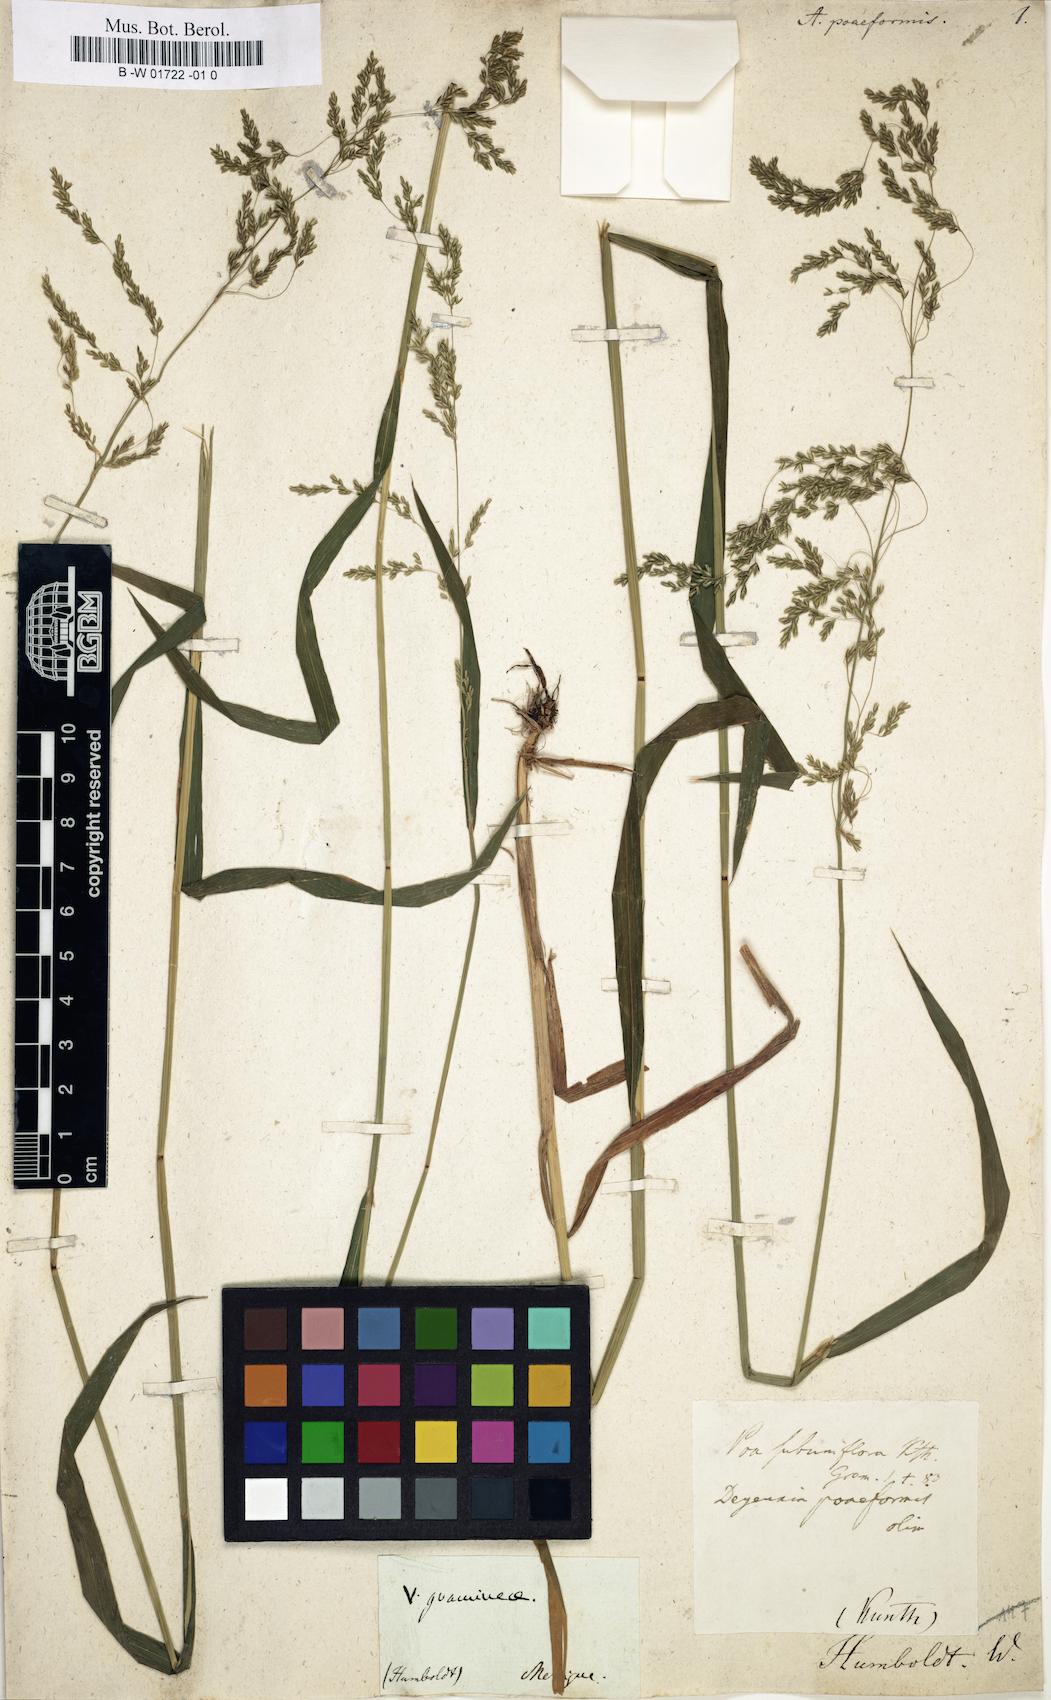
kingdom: Plantae
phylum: Tracheophyta
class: Liliopsida
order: Poales
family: Poaceae
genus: Cinnastrum
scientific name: Cinnastrum poiforme
